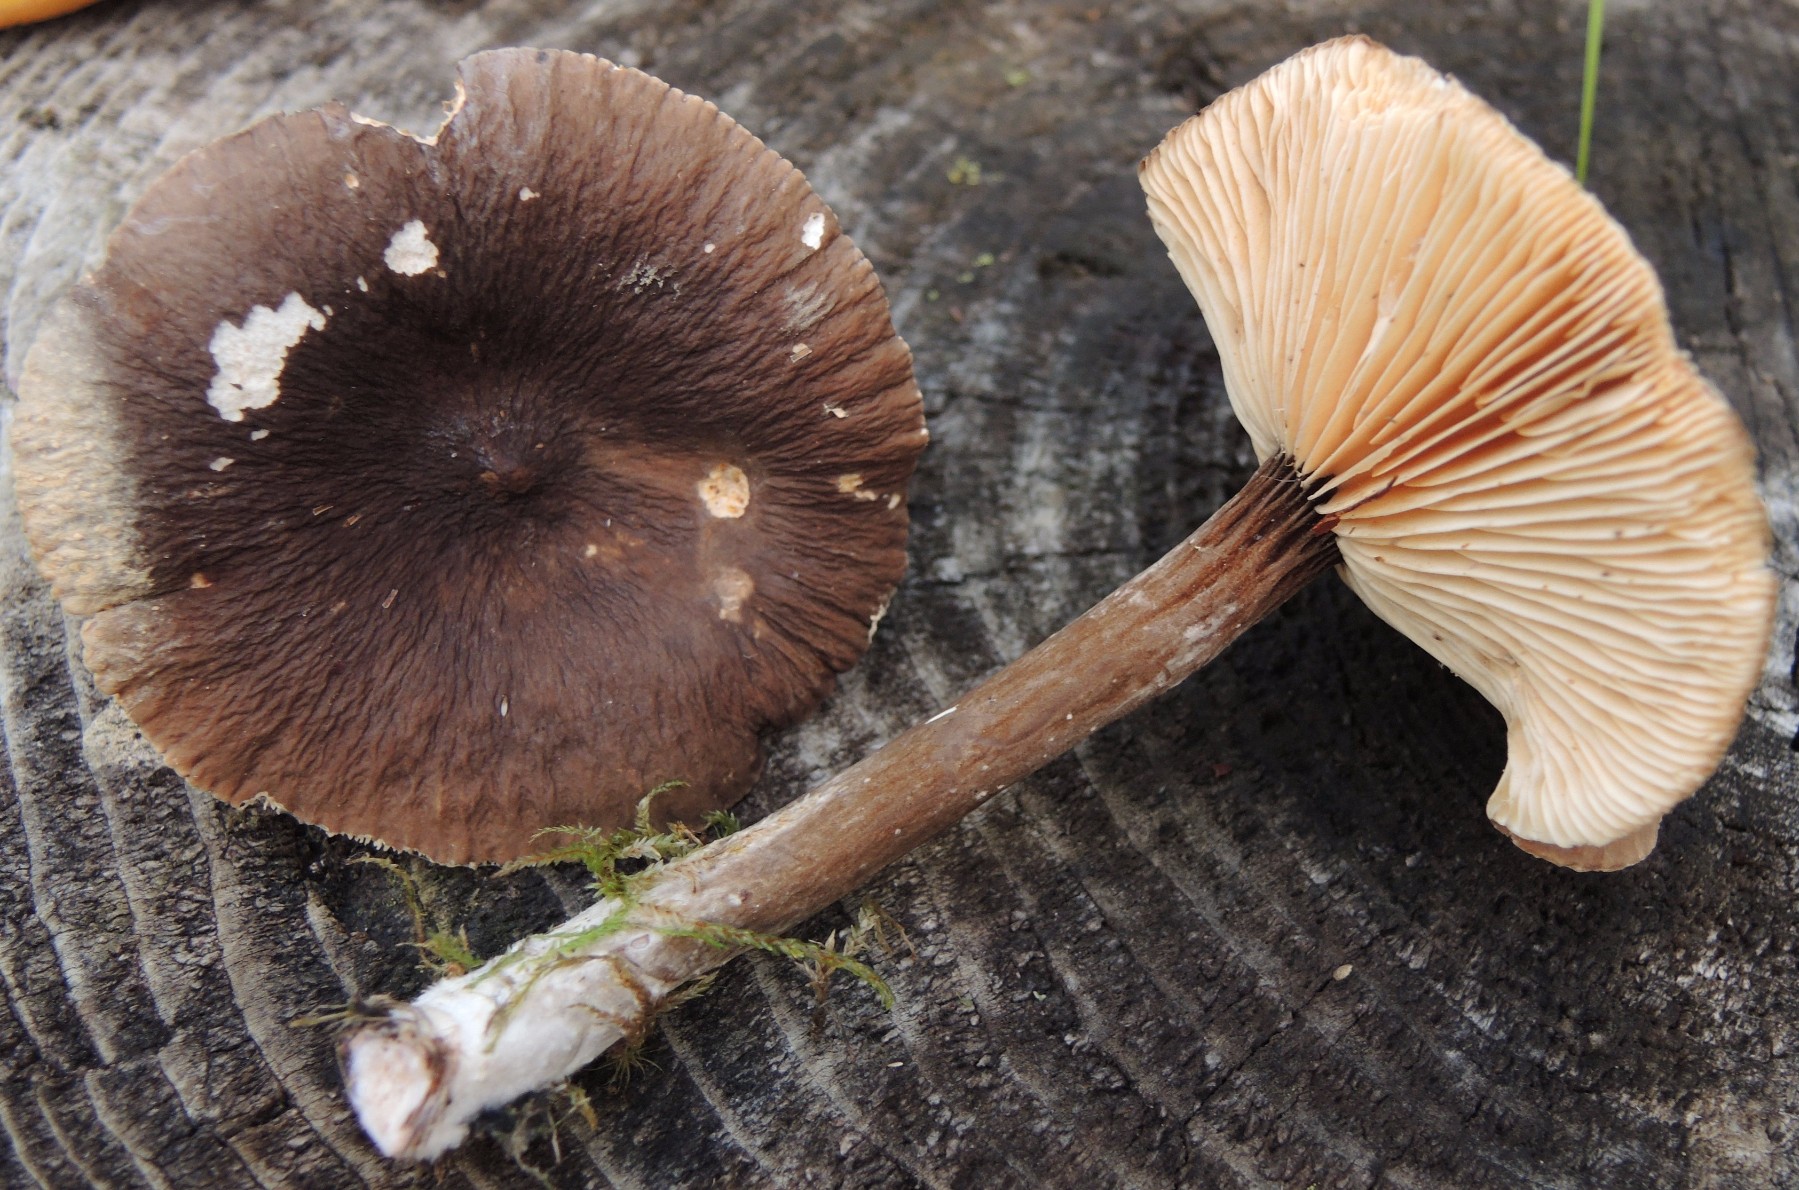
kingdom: Fungi
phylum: Basidiomycota
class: Agaricomycetes
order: Russulales
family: Russulaceae
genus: Lactarius
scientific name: Lactarius lignyotus
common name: fløjls-mælkehat
